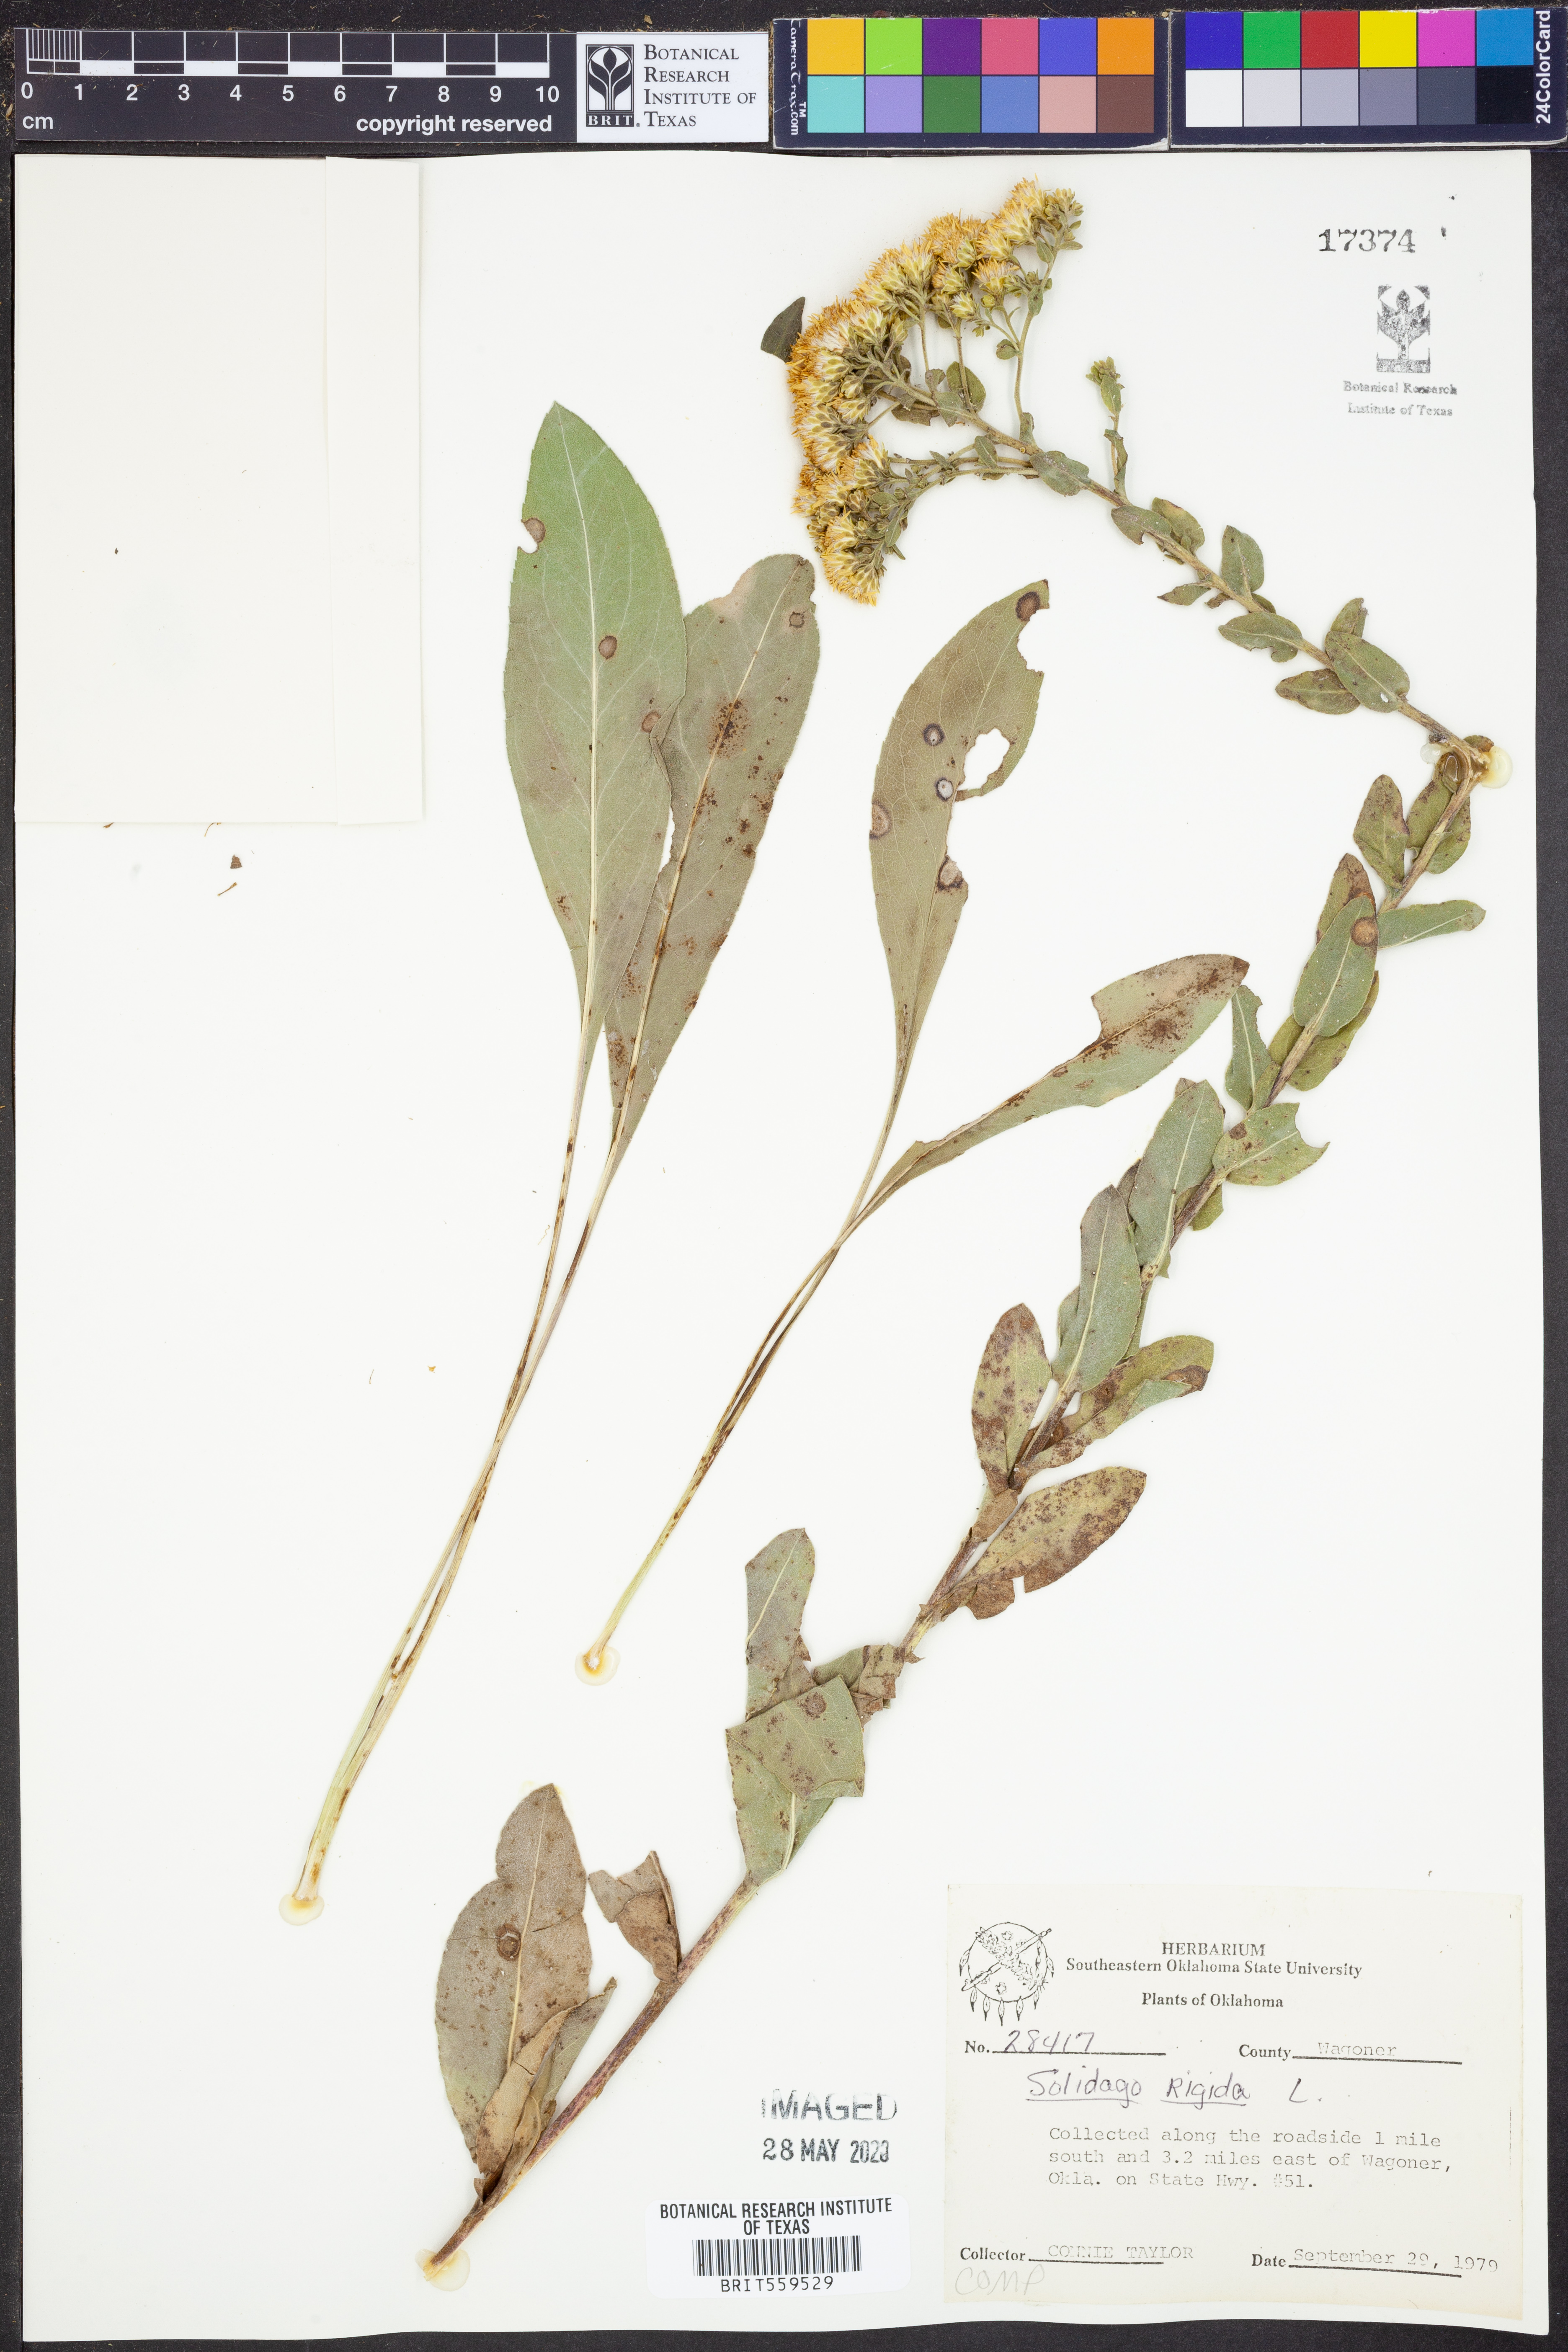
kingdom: Plantae
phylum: Tracheophyta
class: Magnoliopsida
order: Asterales
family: Asteraceae
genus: Solidago
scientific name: Solidago rigida
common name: Rigid goldenrod
